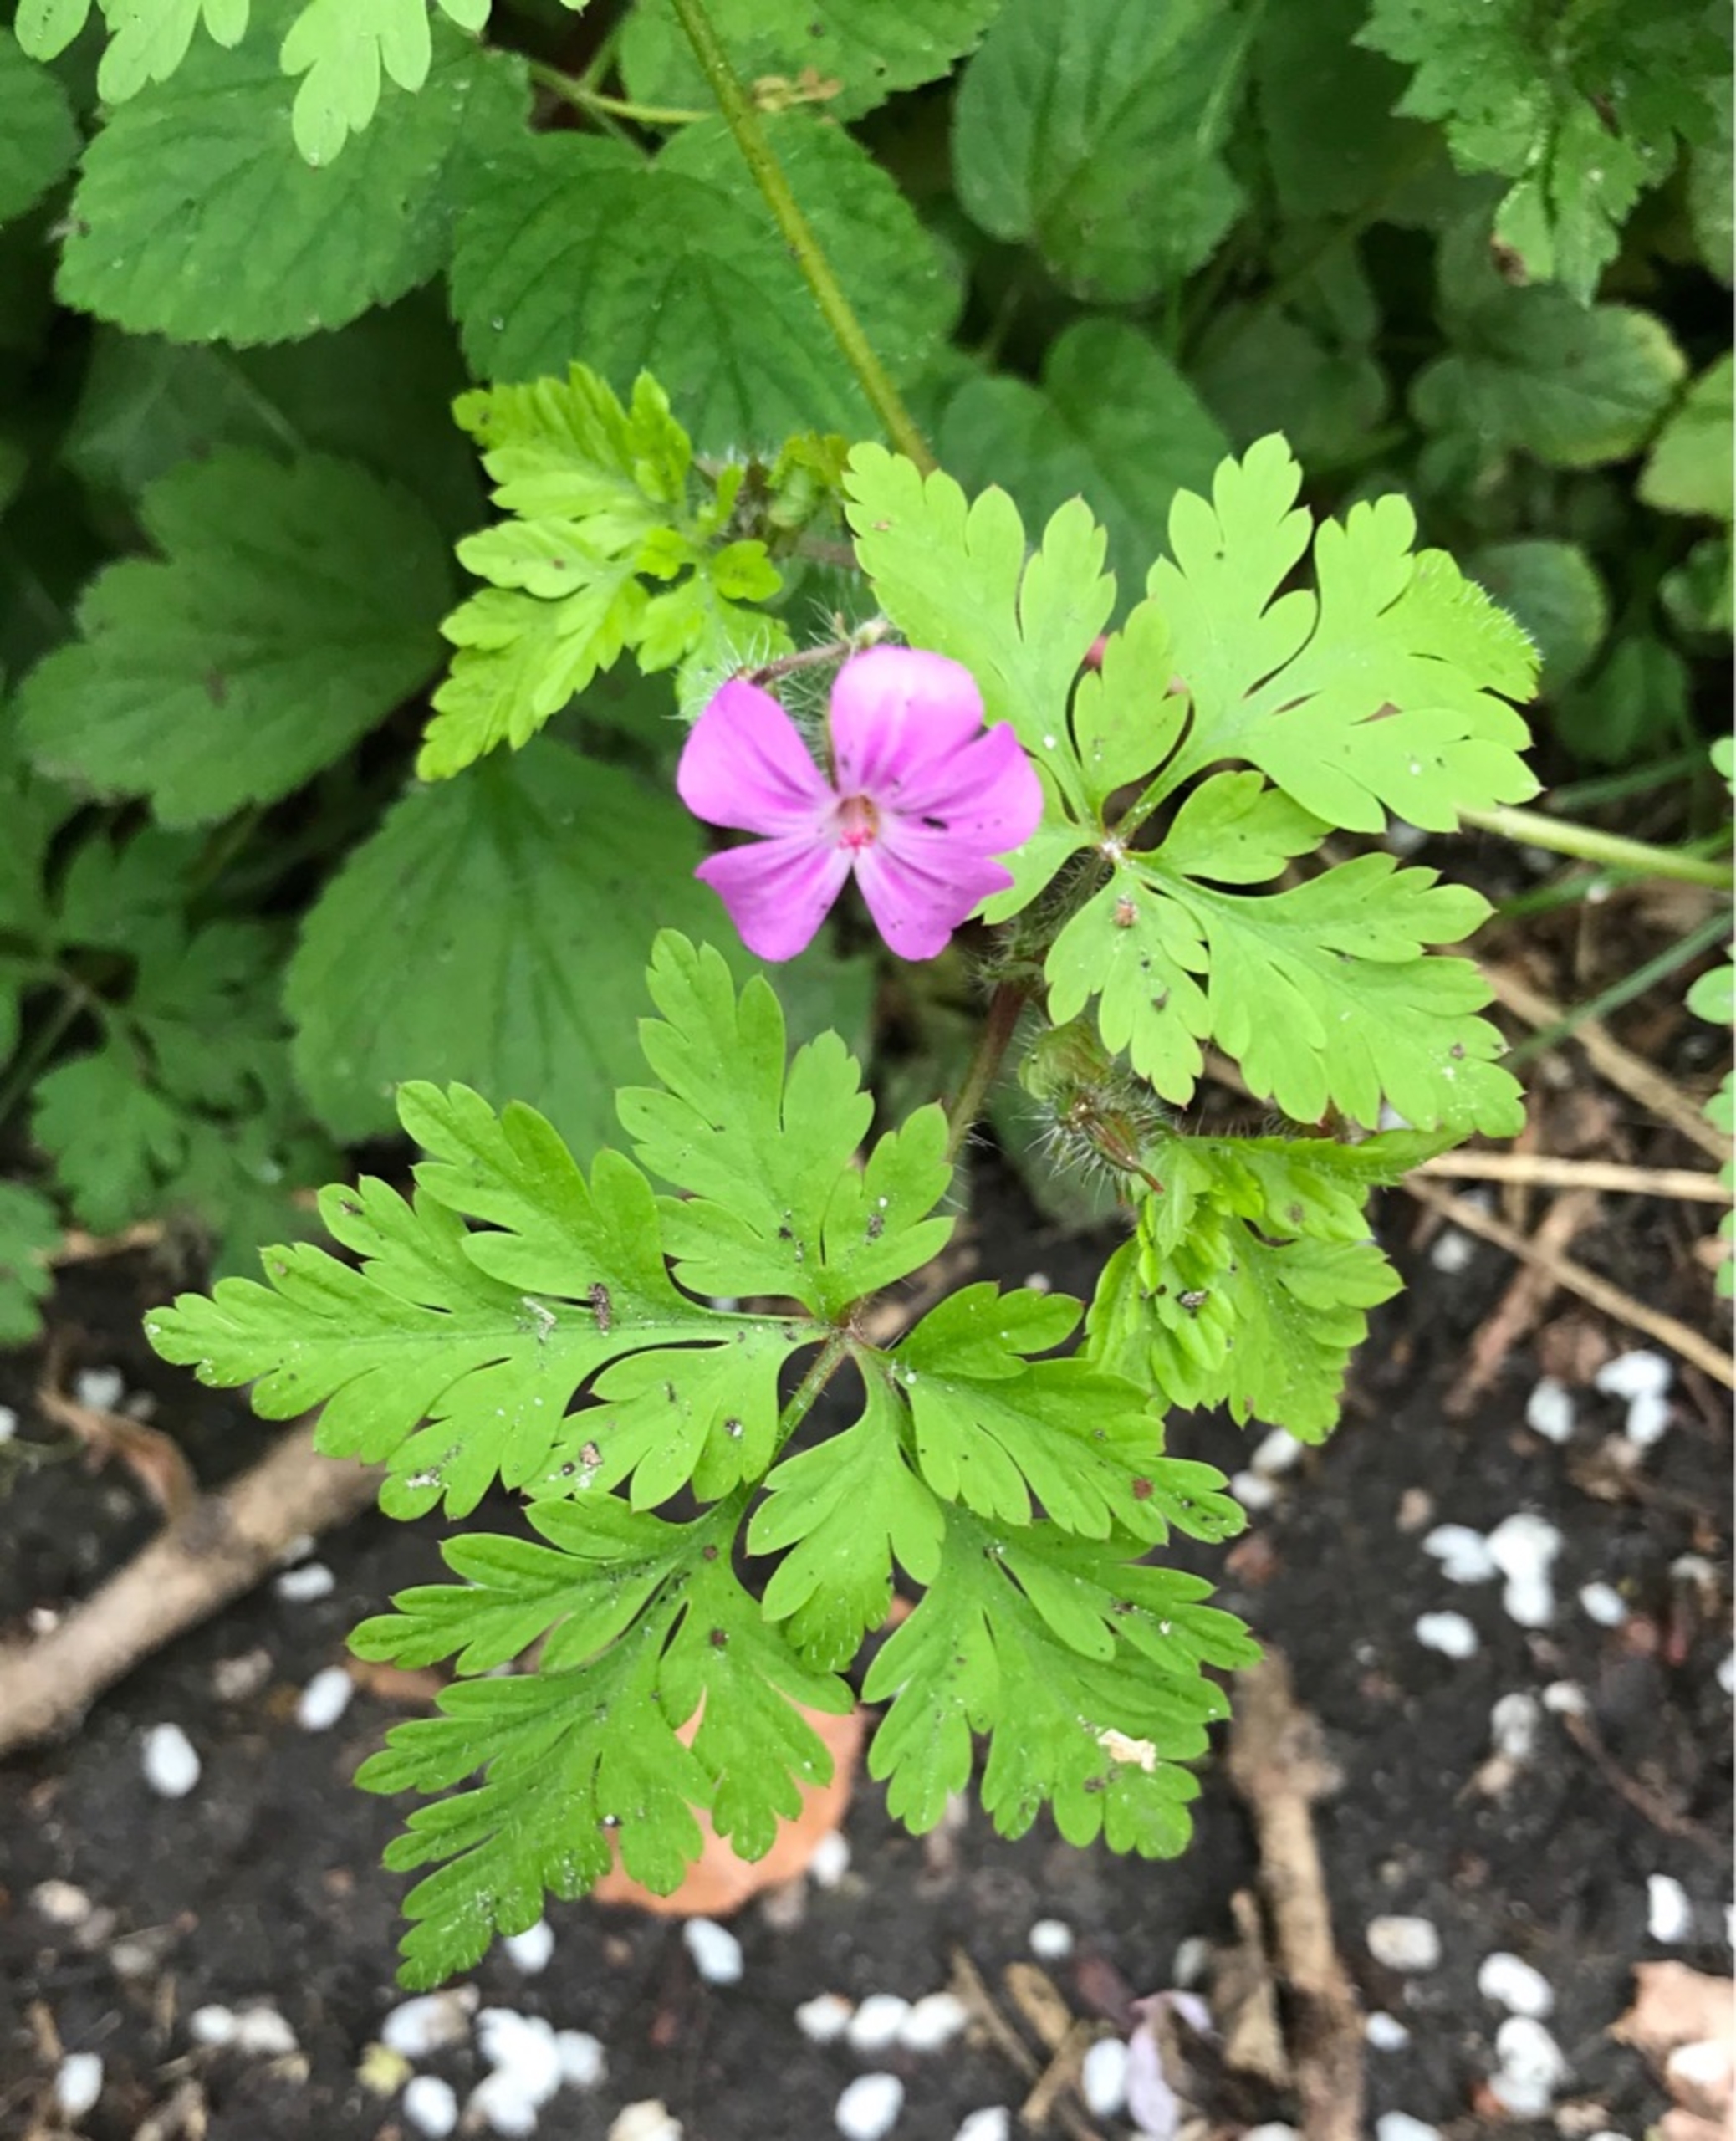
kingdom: Plantae
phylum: Tracheophyta
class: Magnoliopsida
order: Geraniales
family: Geraniaceae
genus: Geranium
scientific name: Geranium robertianum
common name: Stinkende storkenæb
